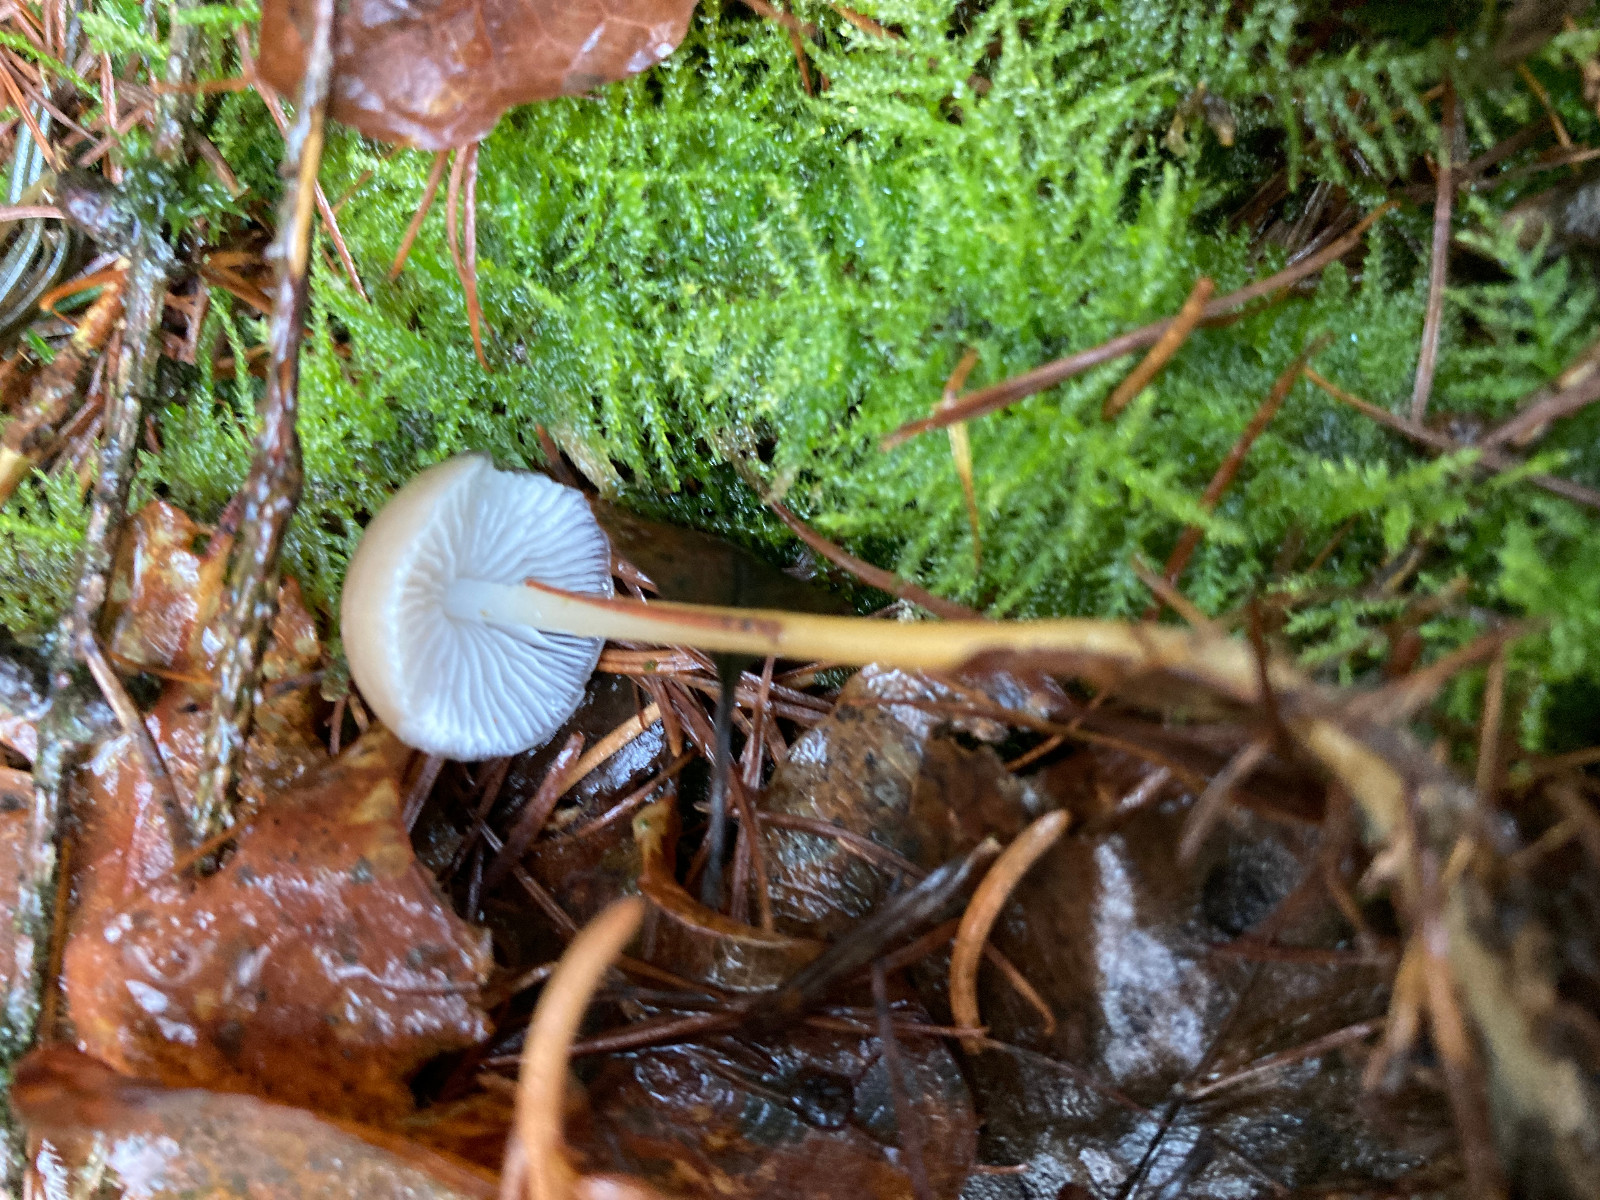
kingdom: Fungi
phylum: Basidiomycota
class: Agaricomycetes
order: Agaricales
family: Physalacriaceae
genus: Strobilurus
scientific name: Strobilurus esculentus
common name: gran-koglehat
